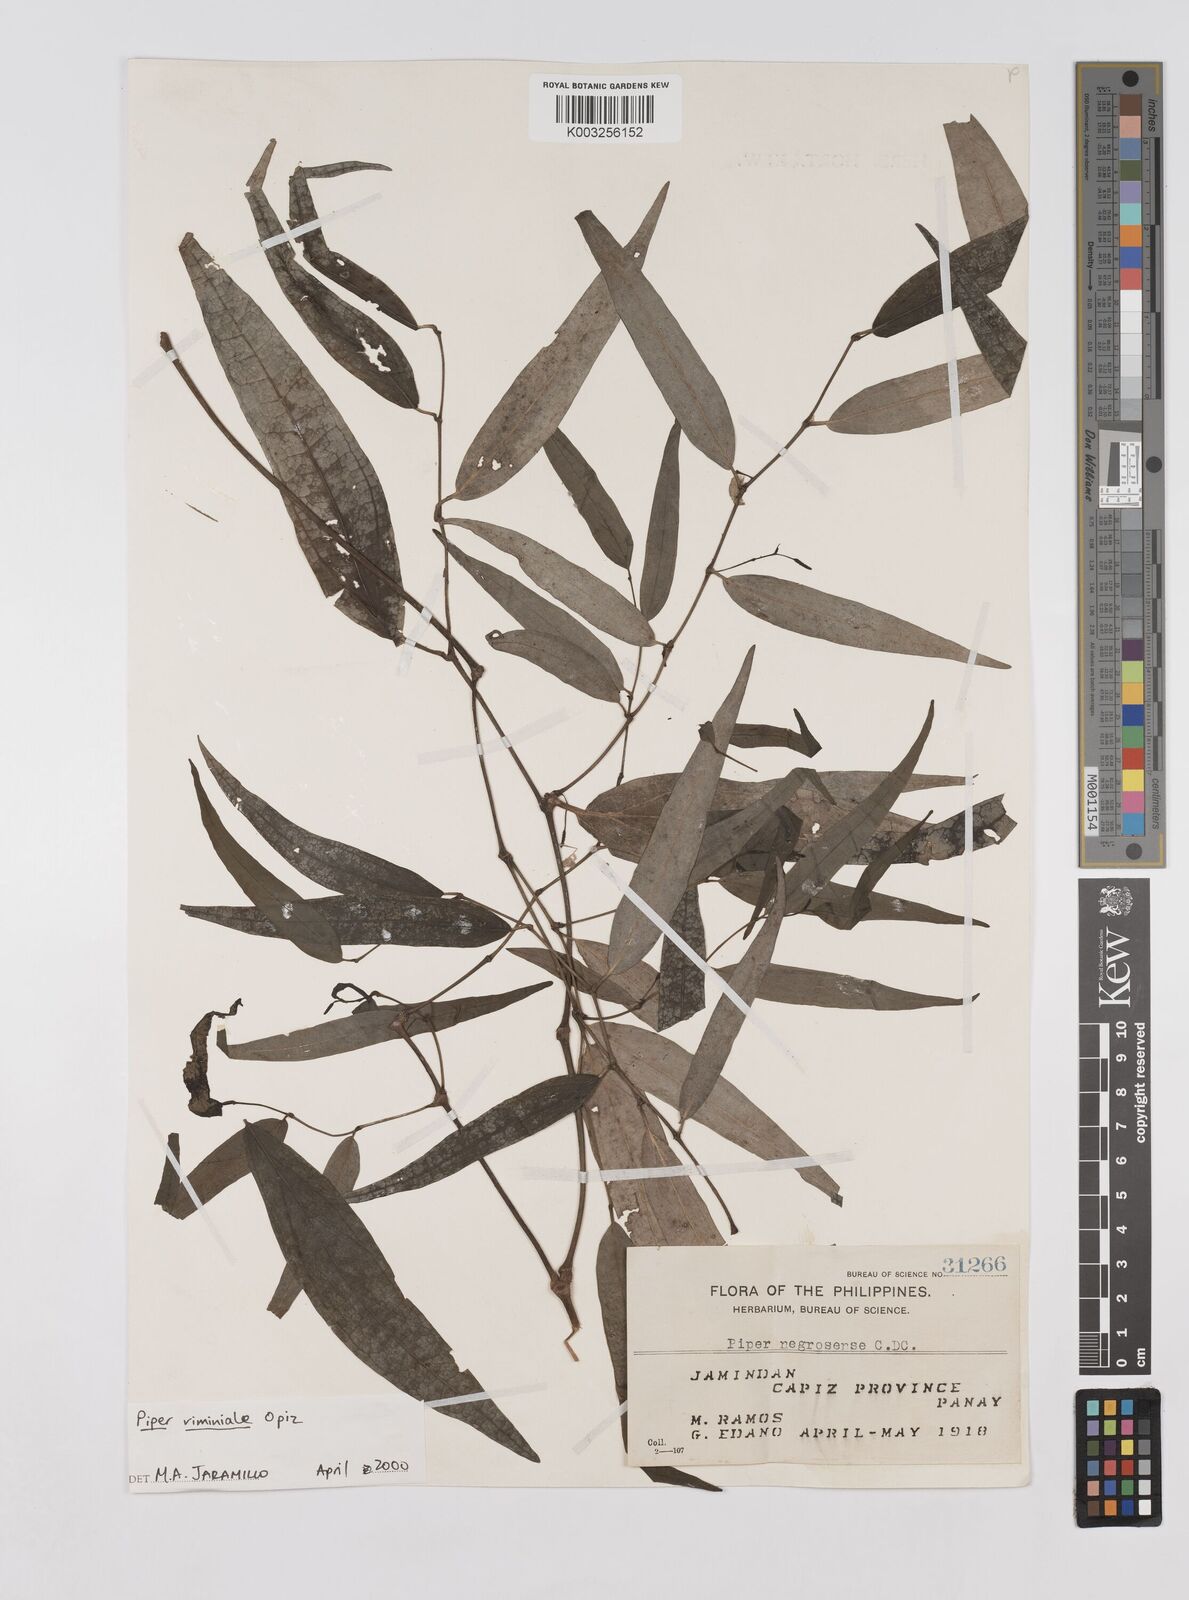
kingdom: Plantae
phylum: Tracheophyta
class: Magnoliopsida
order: Piperales
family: Piperaceae
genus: Piper
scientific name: Piper lanatum
